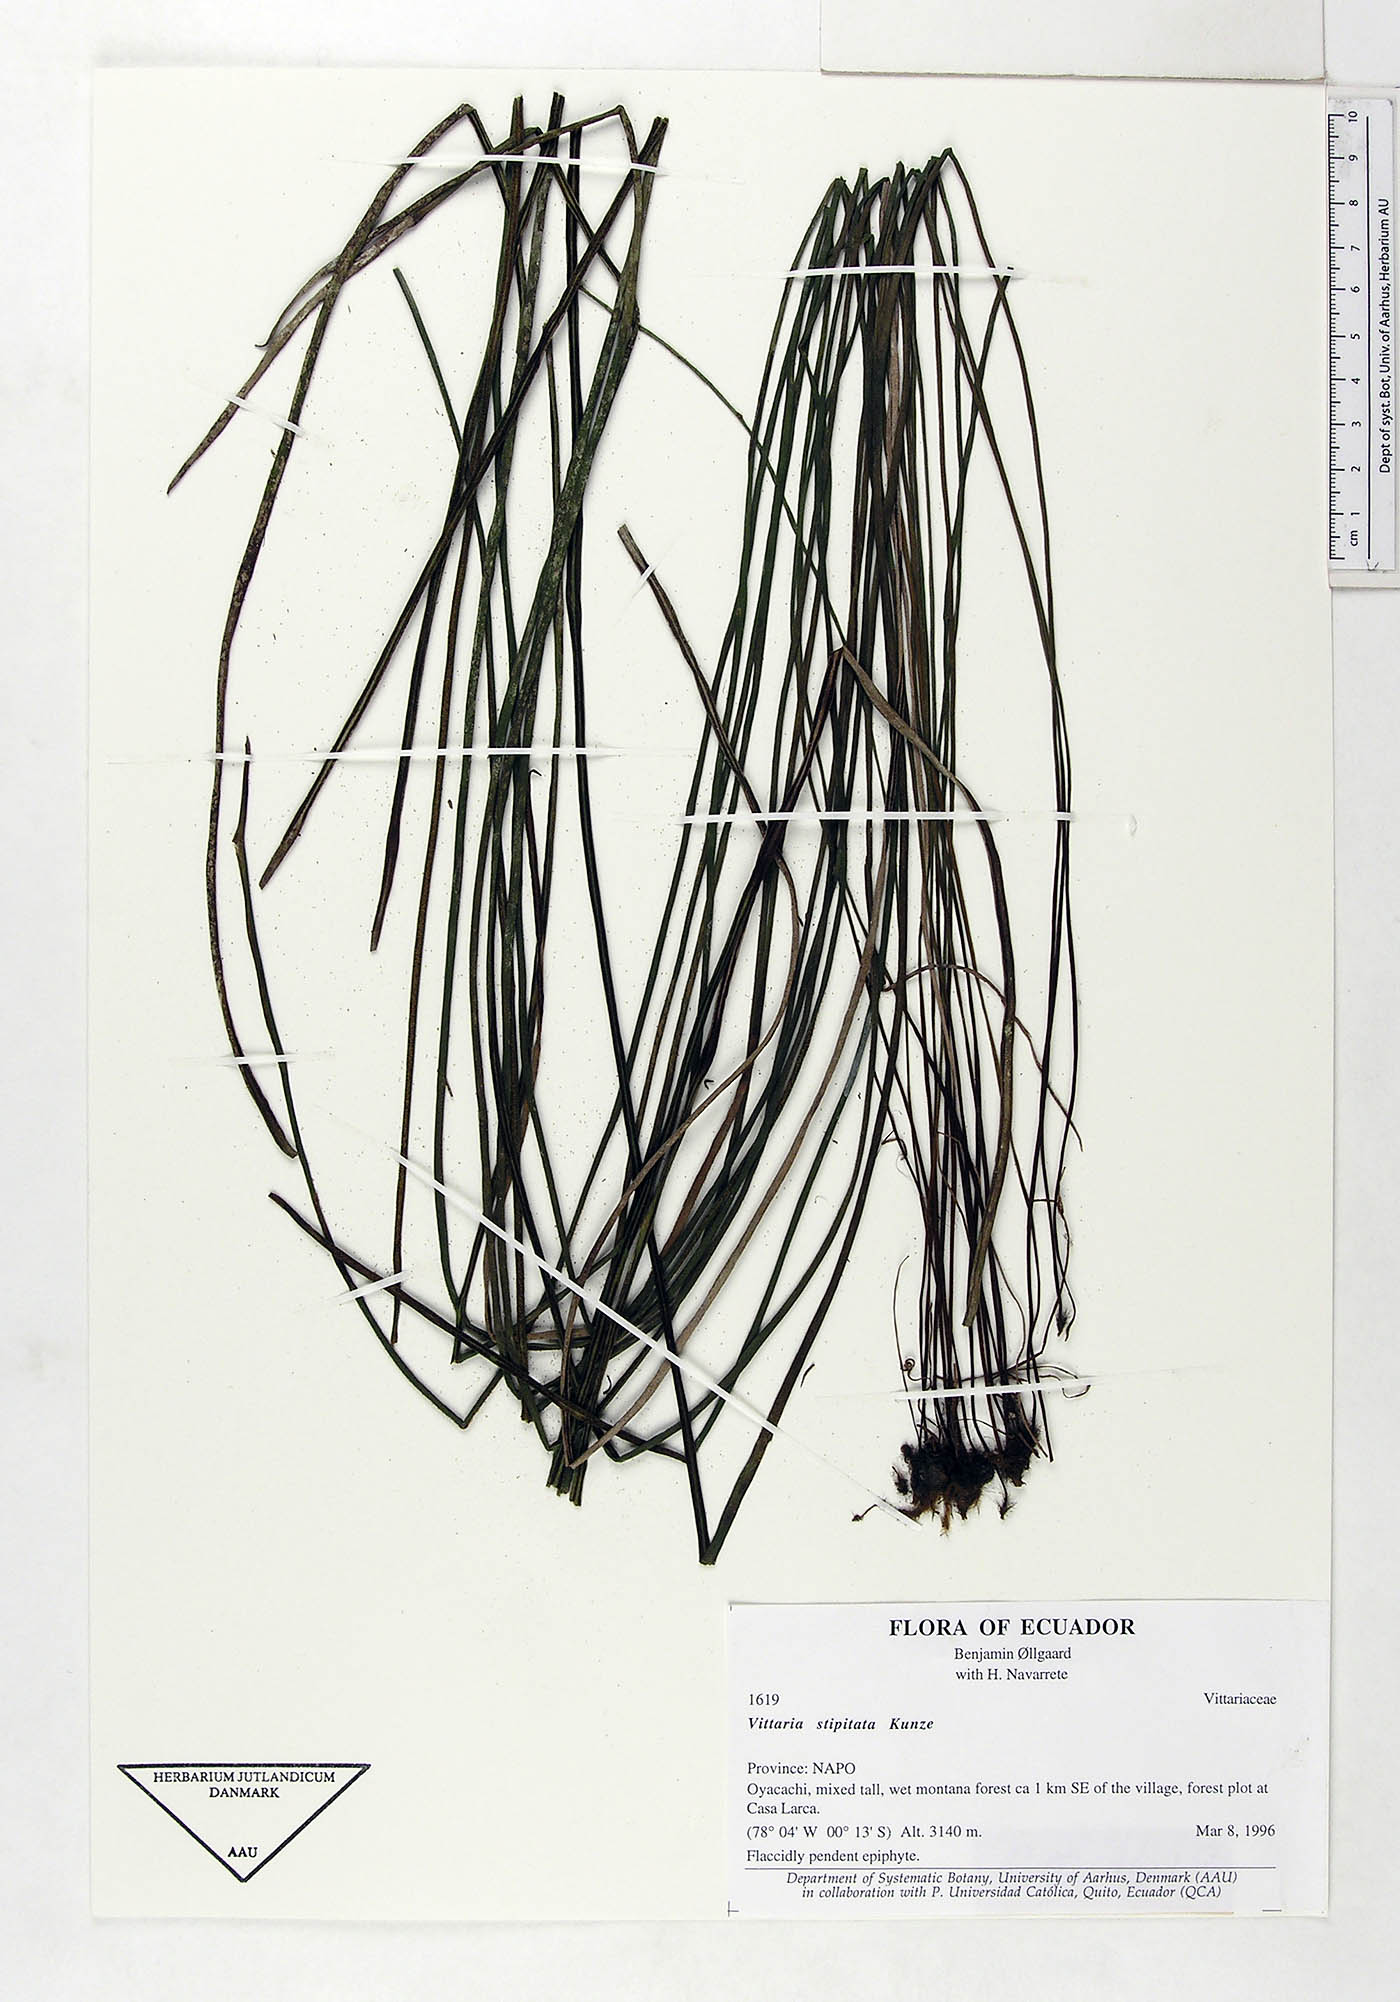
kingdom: Plantae
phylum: Tracheophyta
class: Polypodiopsida
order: Polypodiales
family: Pteridaceae
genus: Radiovittaria
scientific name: Radiovittaria stipitata
